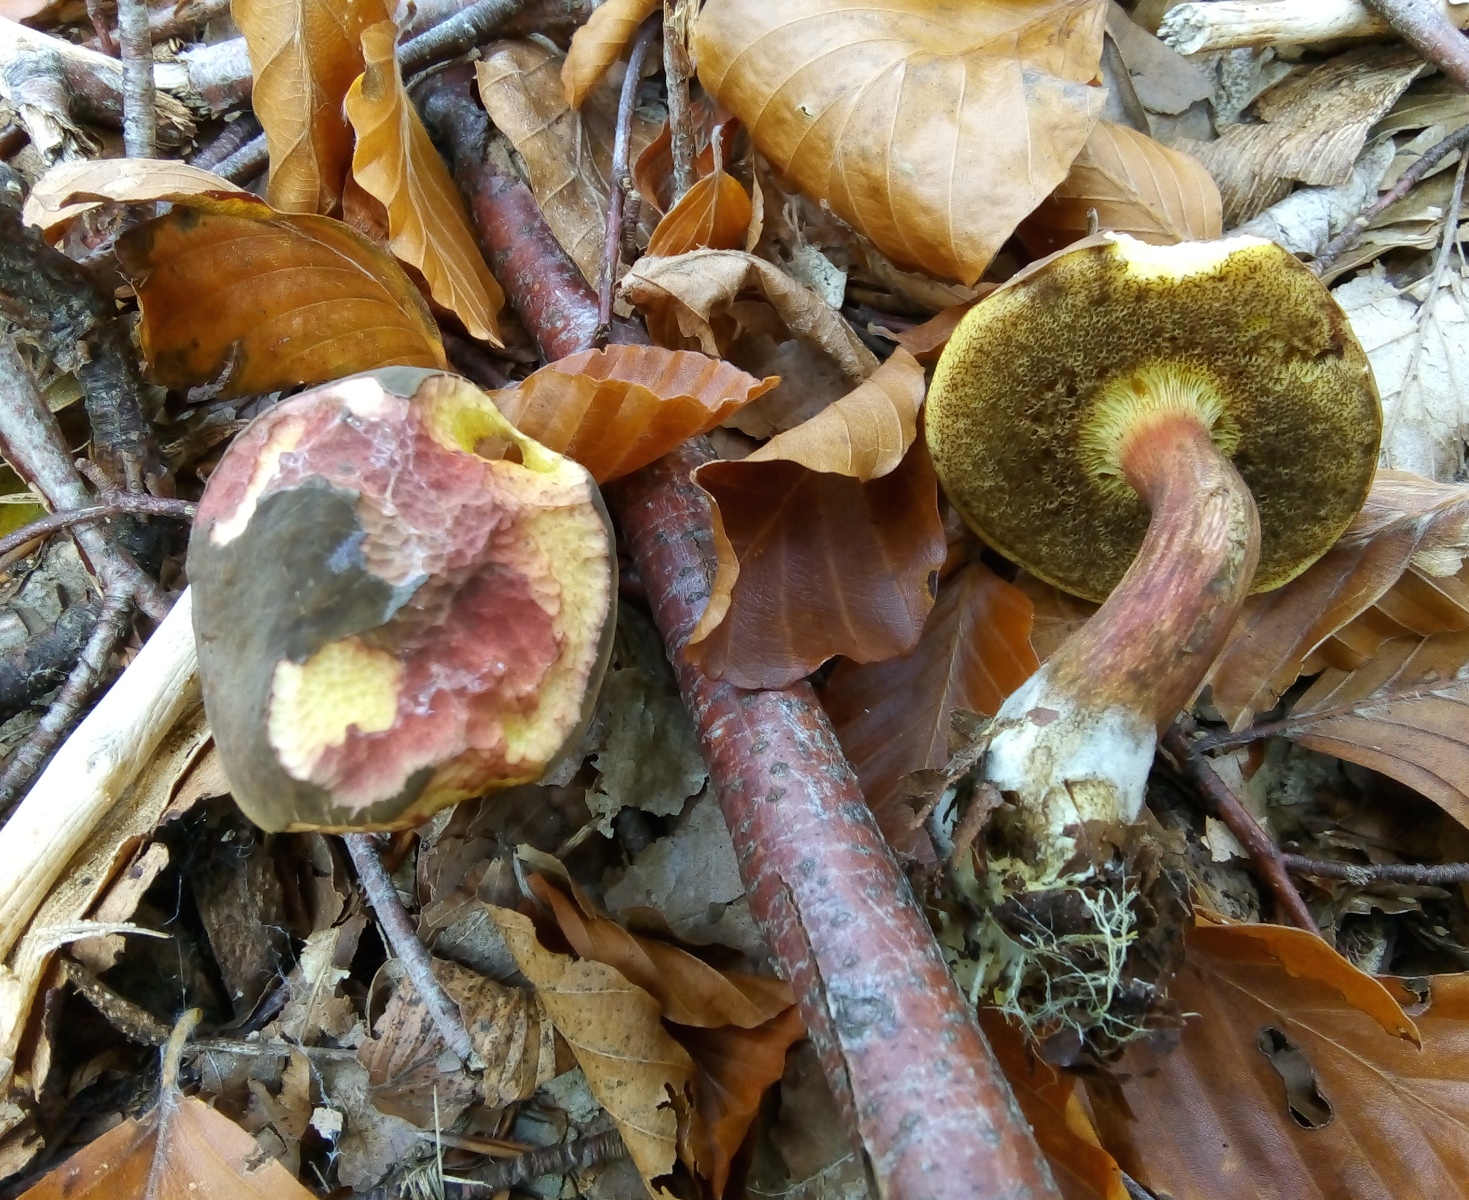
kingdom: Fungi
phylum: Basidiomycota
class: Agaricomycetes
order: Boletales
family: Boletaceae
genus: Xerocomellus
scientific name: Xerocomellus pruinatus
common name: dugget rørhat
